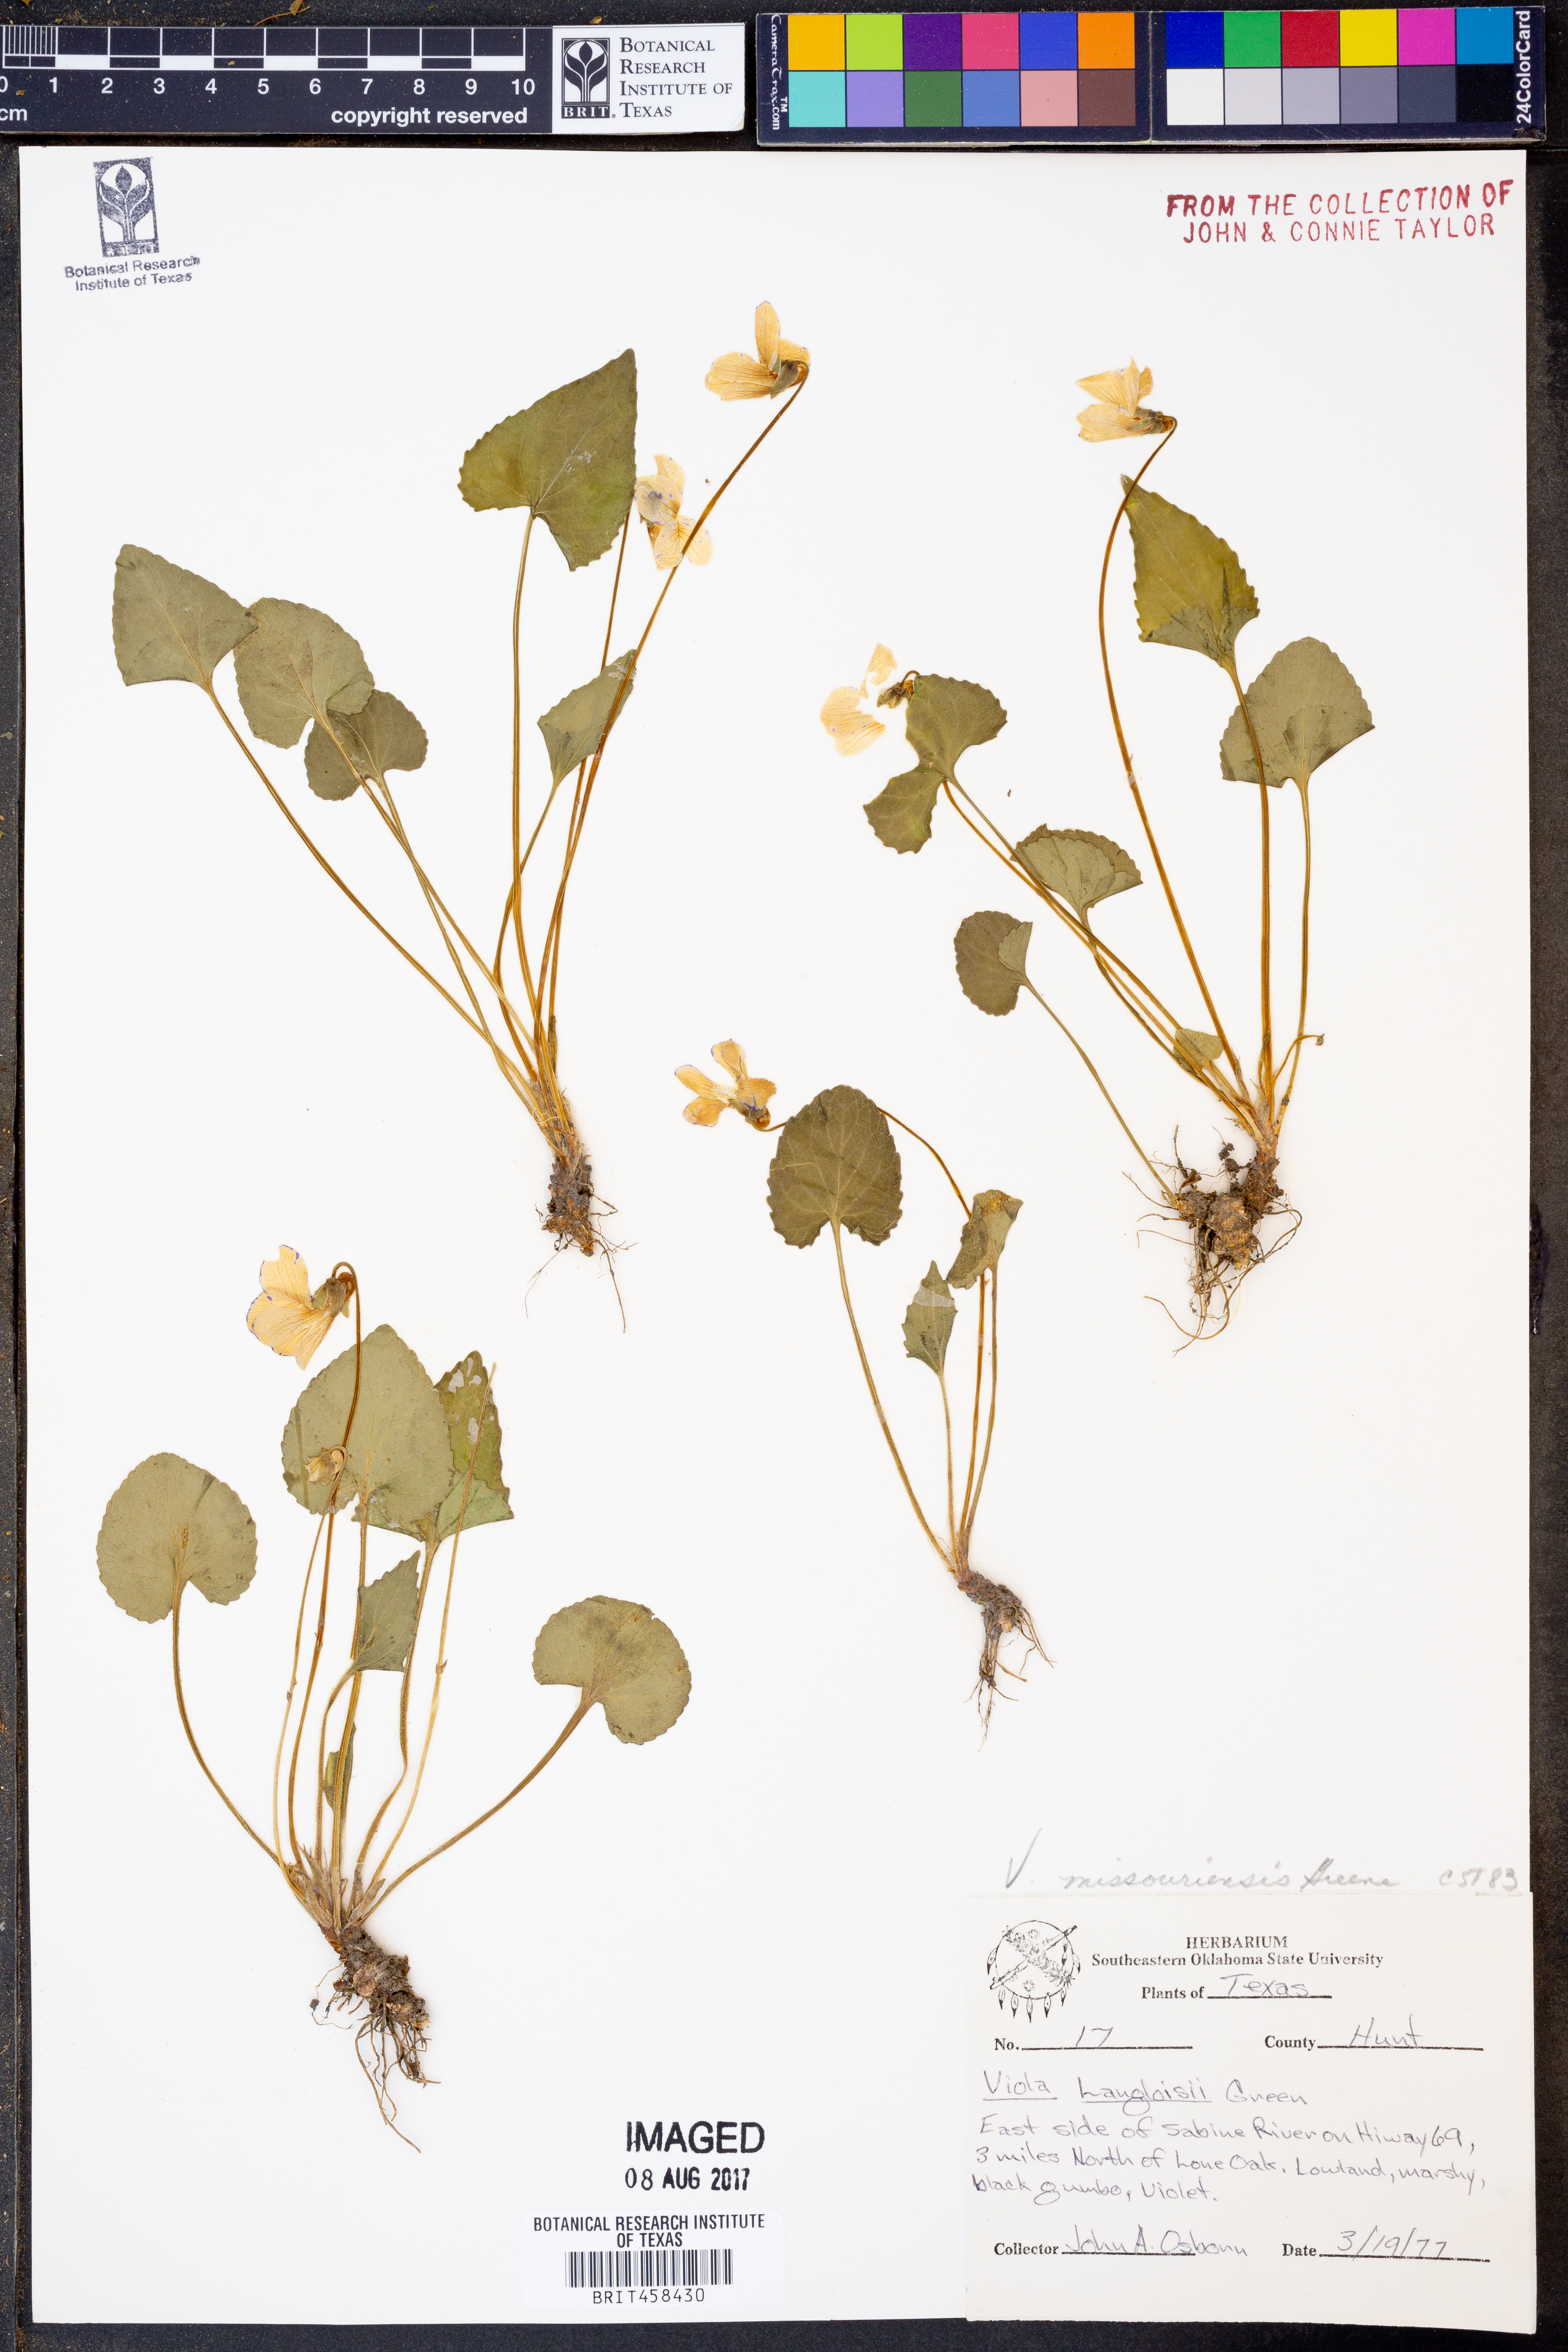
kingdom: Plantae
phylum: Tracheophyta
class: Magnoliopsida
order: Malpighiales
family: Violaceae
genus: Viola
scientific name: Viola missouriensis
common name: Missouri violet
